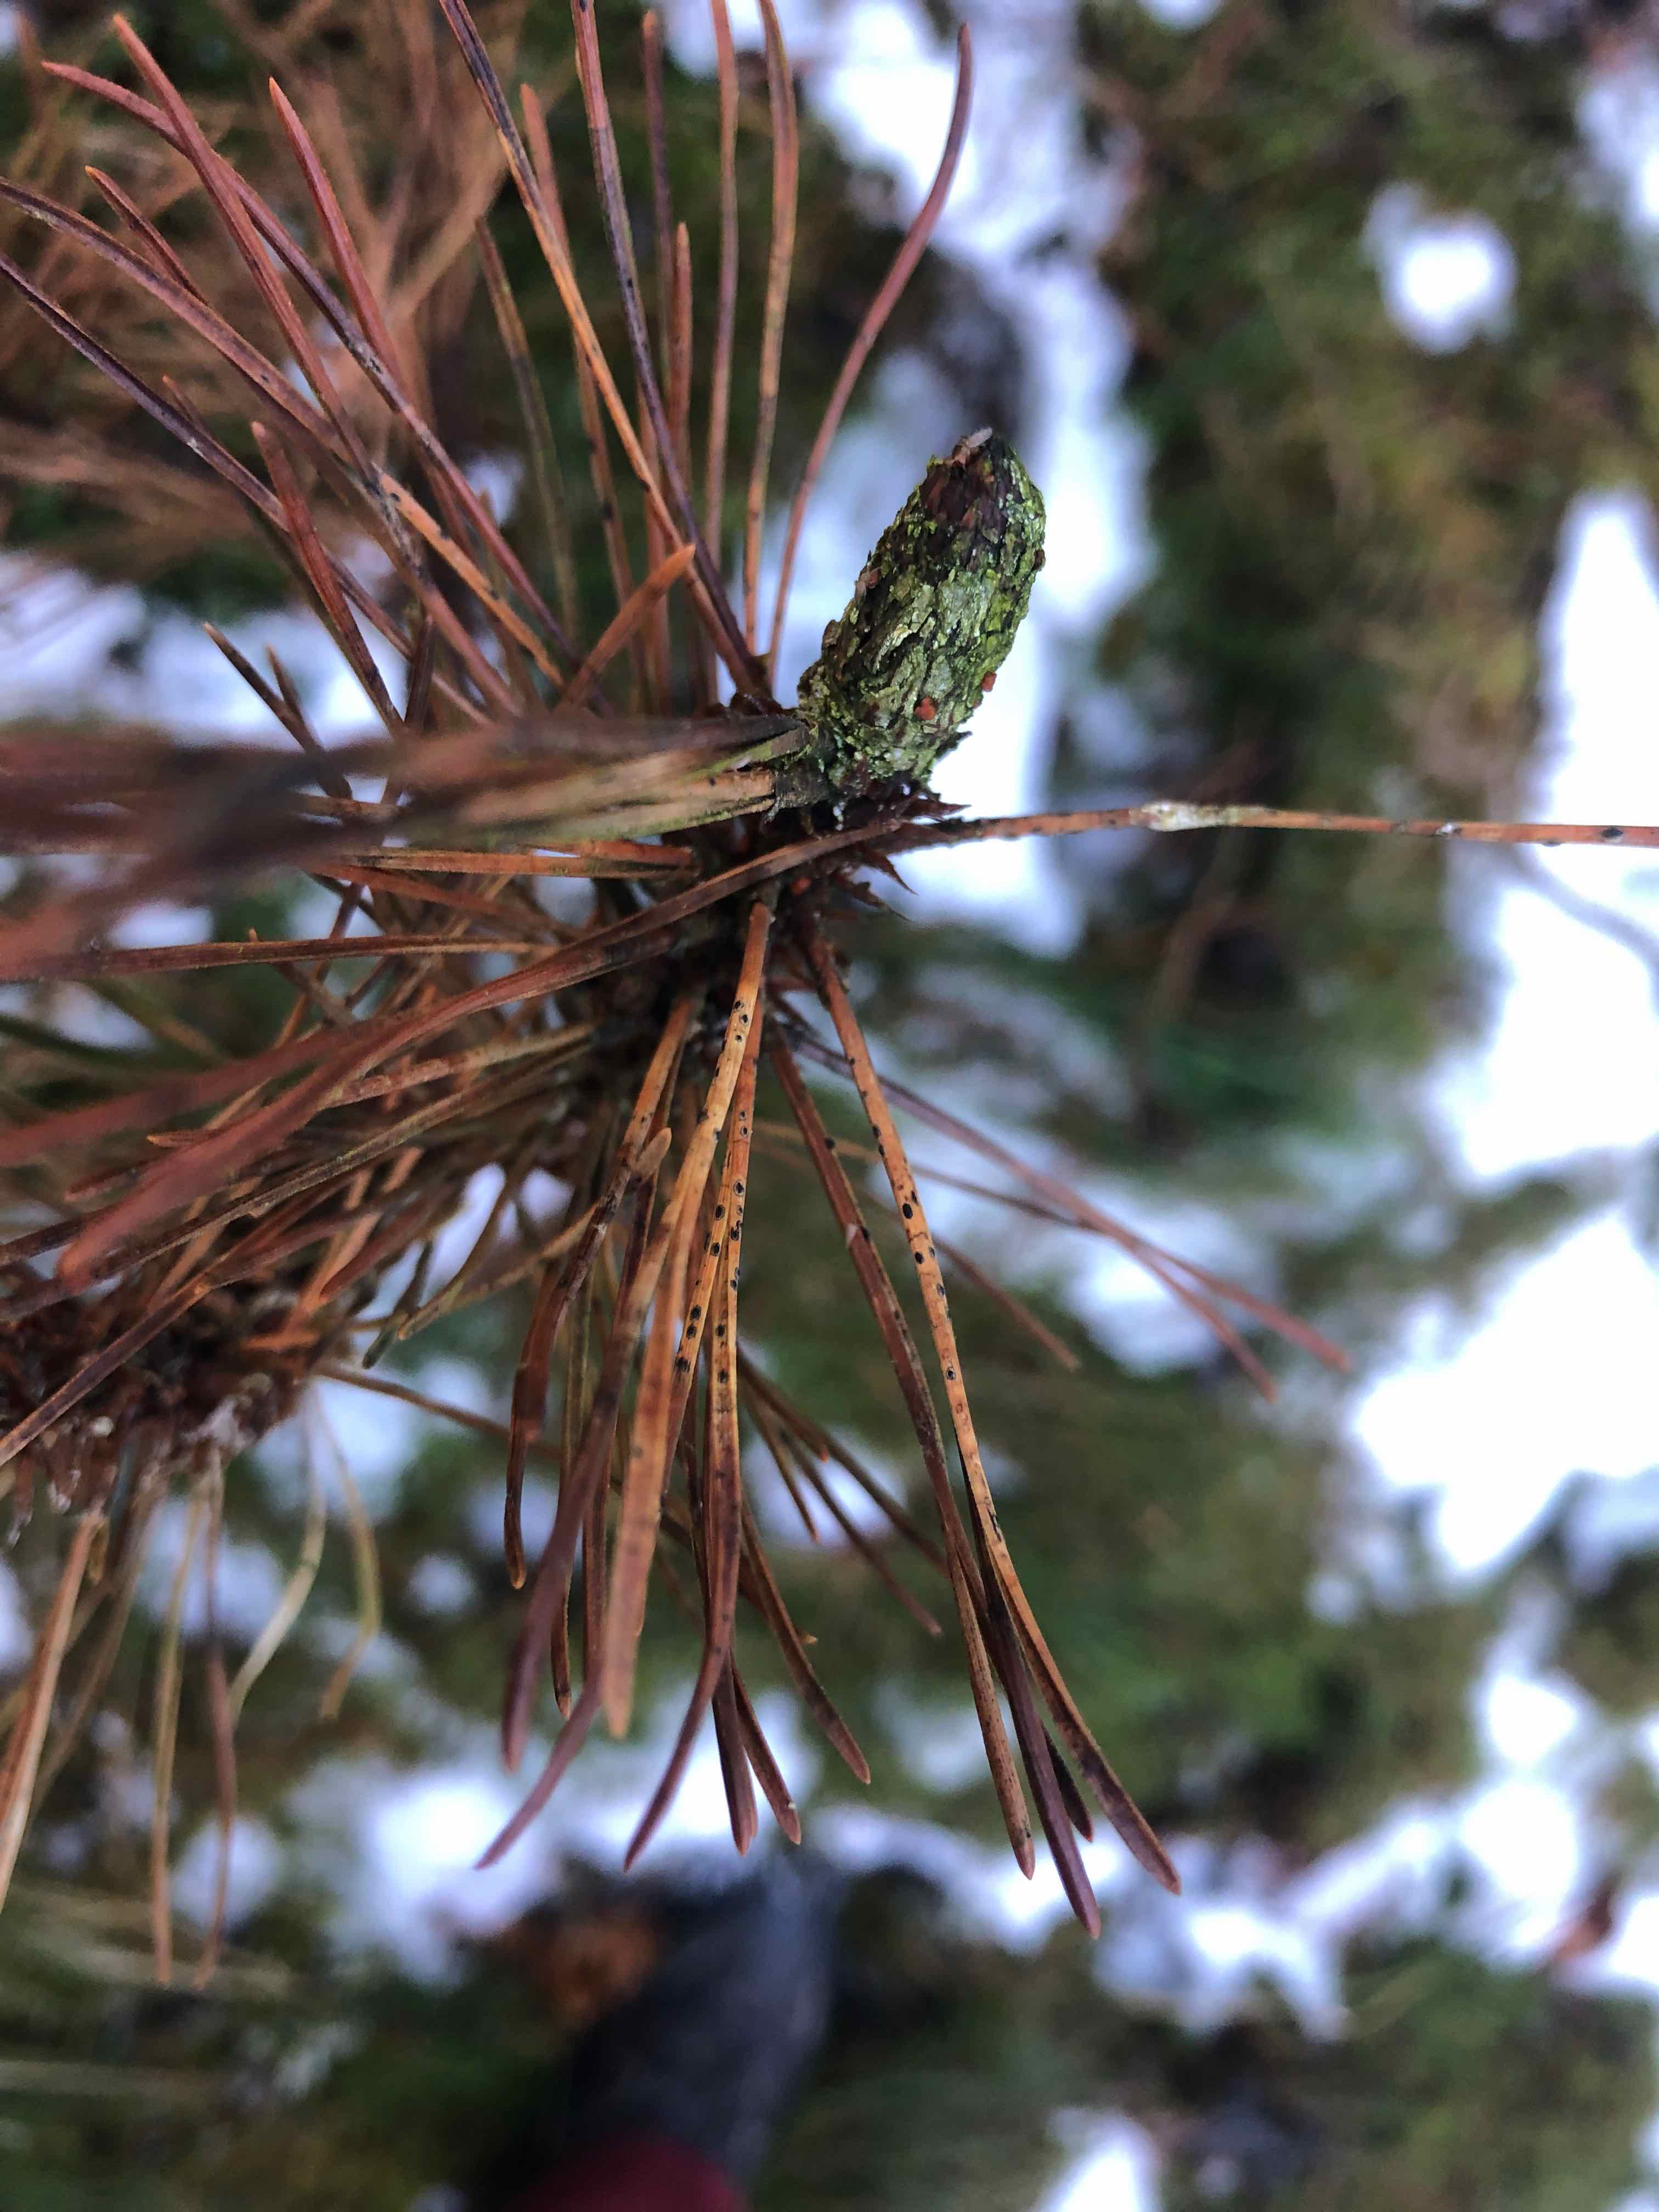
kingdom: Fungi
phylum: Ascomycota
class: Leotiomycetes
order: Rhytismatales
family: Rhytismataceae
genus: Lophodermium
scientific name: Lophodermium pinastri
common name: fyrre-fureplet
